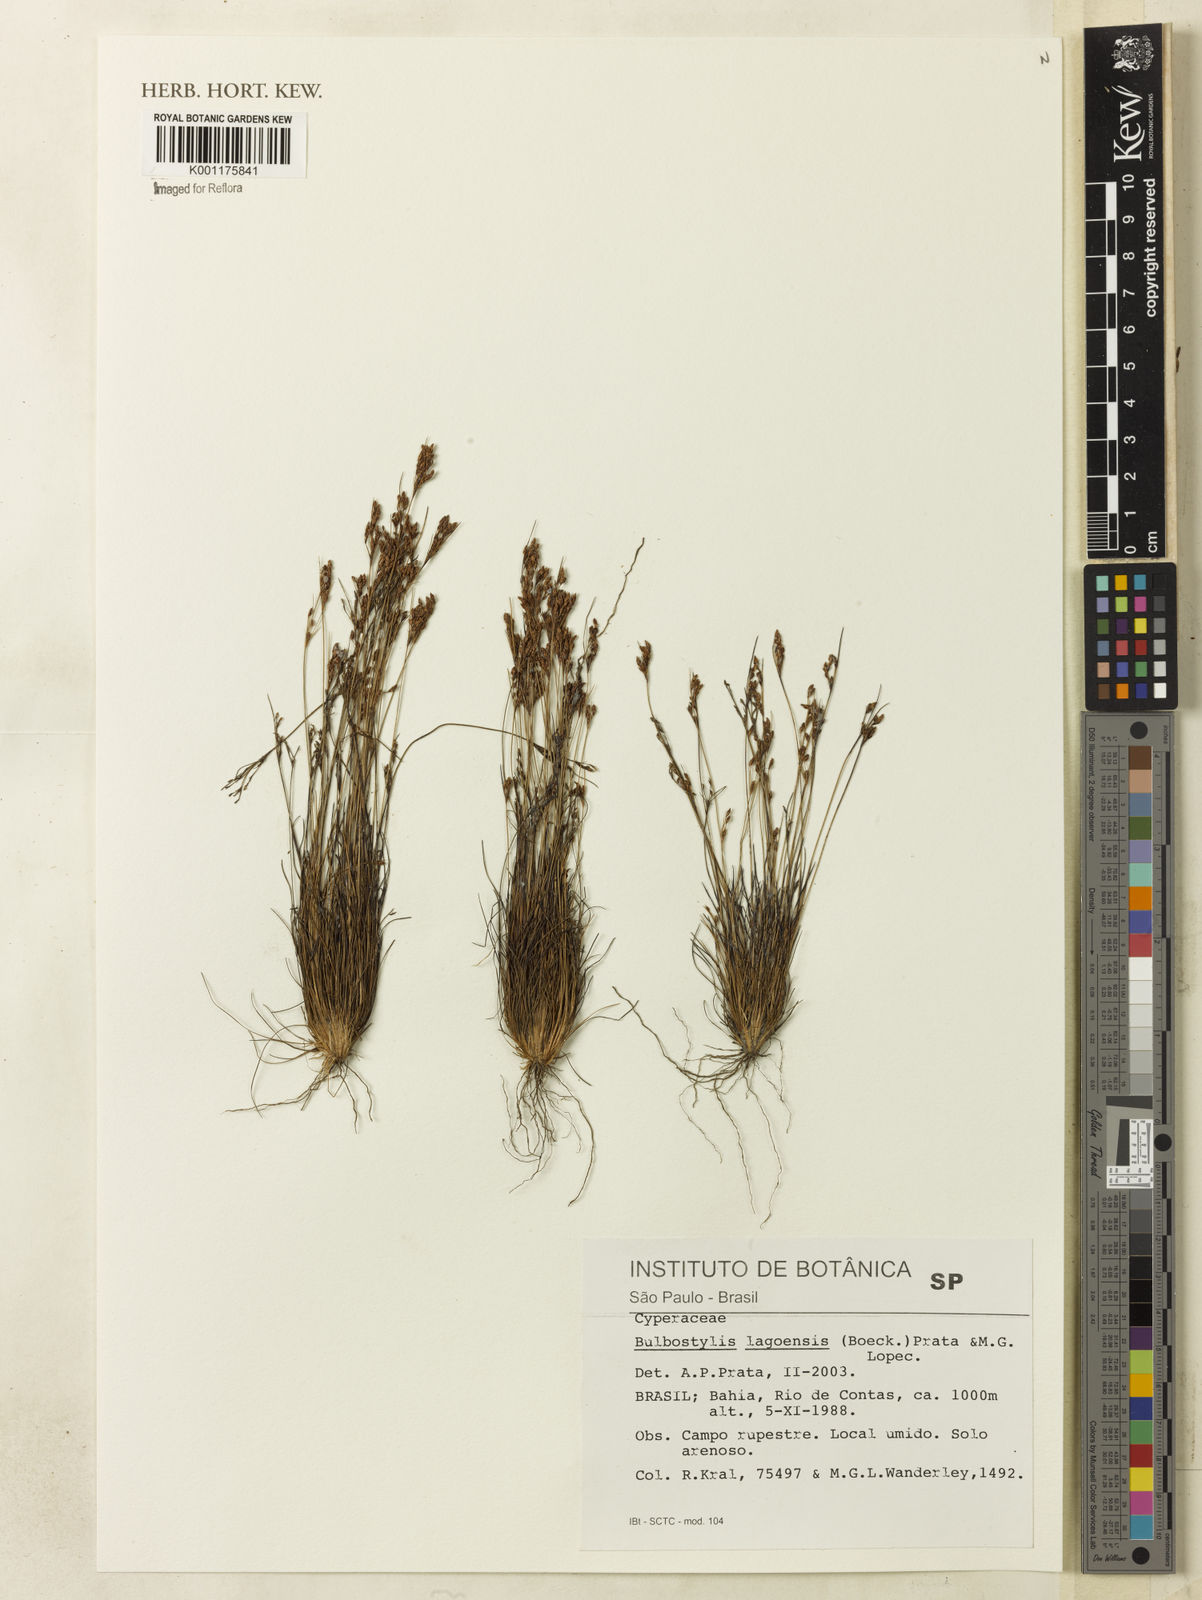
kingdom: Plantae
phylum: Tracheophyta
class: Liliopsida
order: Poales
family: Cyperaceae
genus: Bulbostylis
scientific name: Bulbostylis lagoensis
